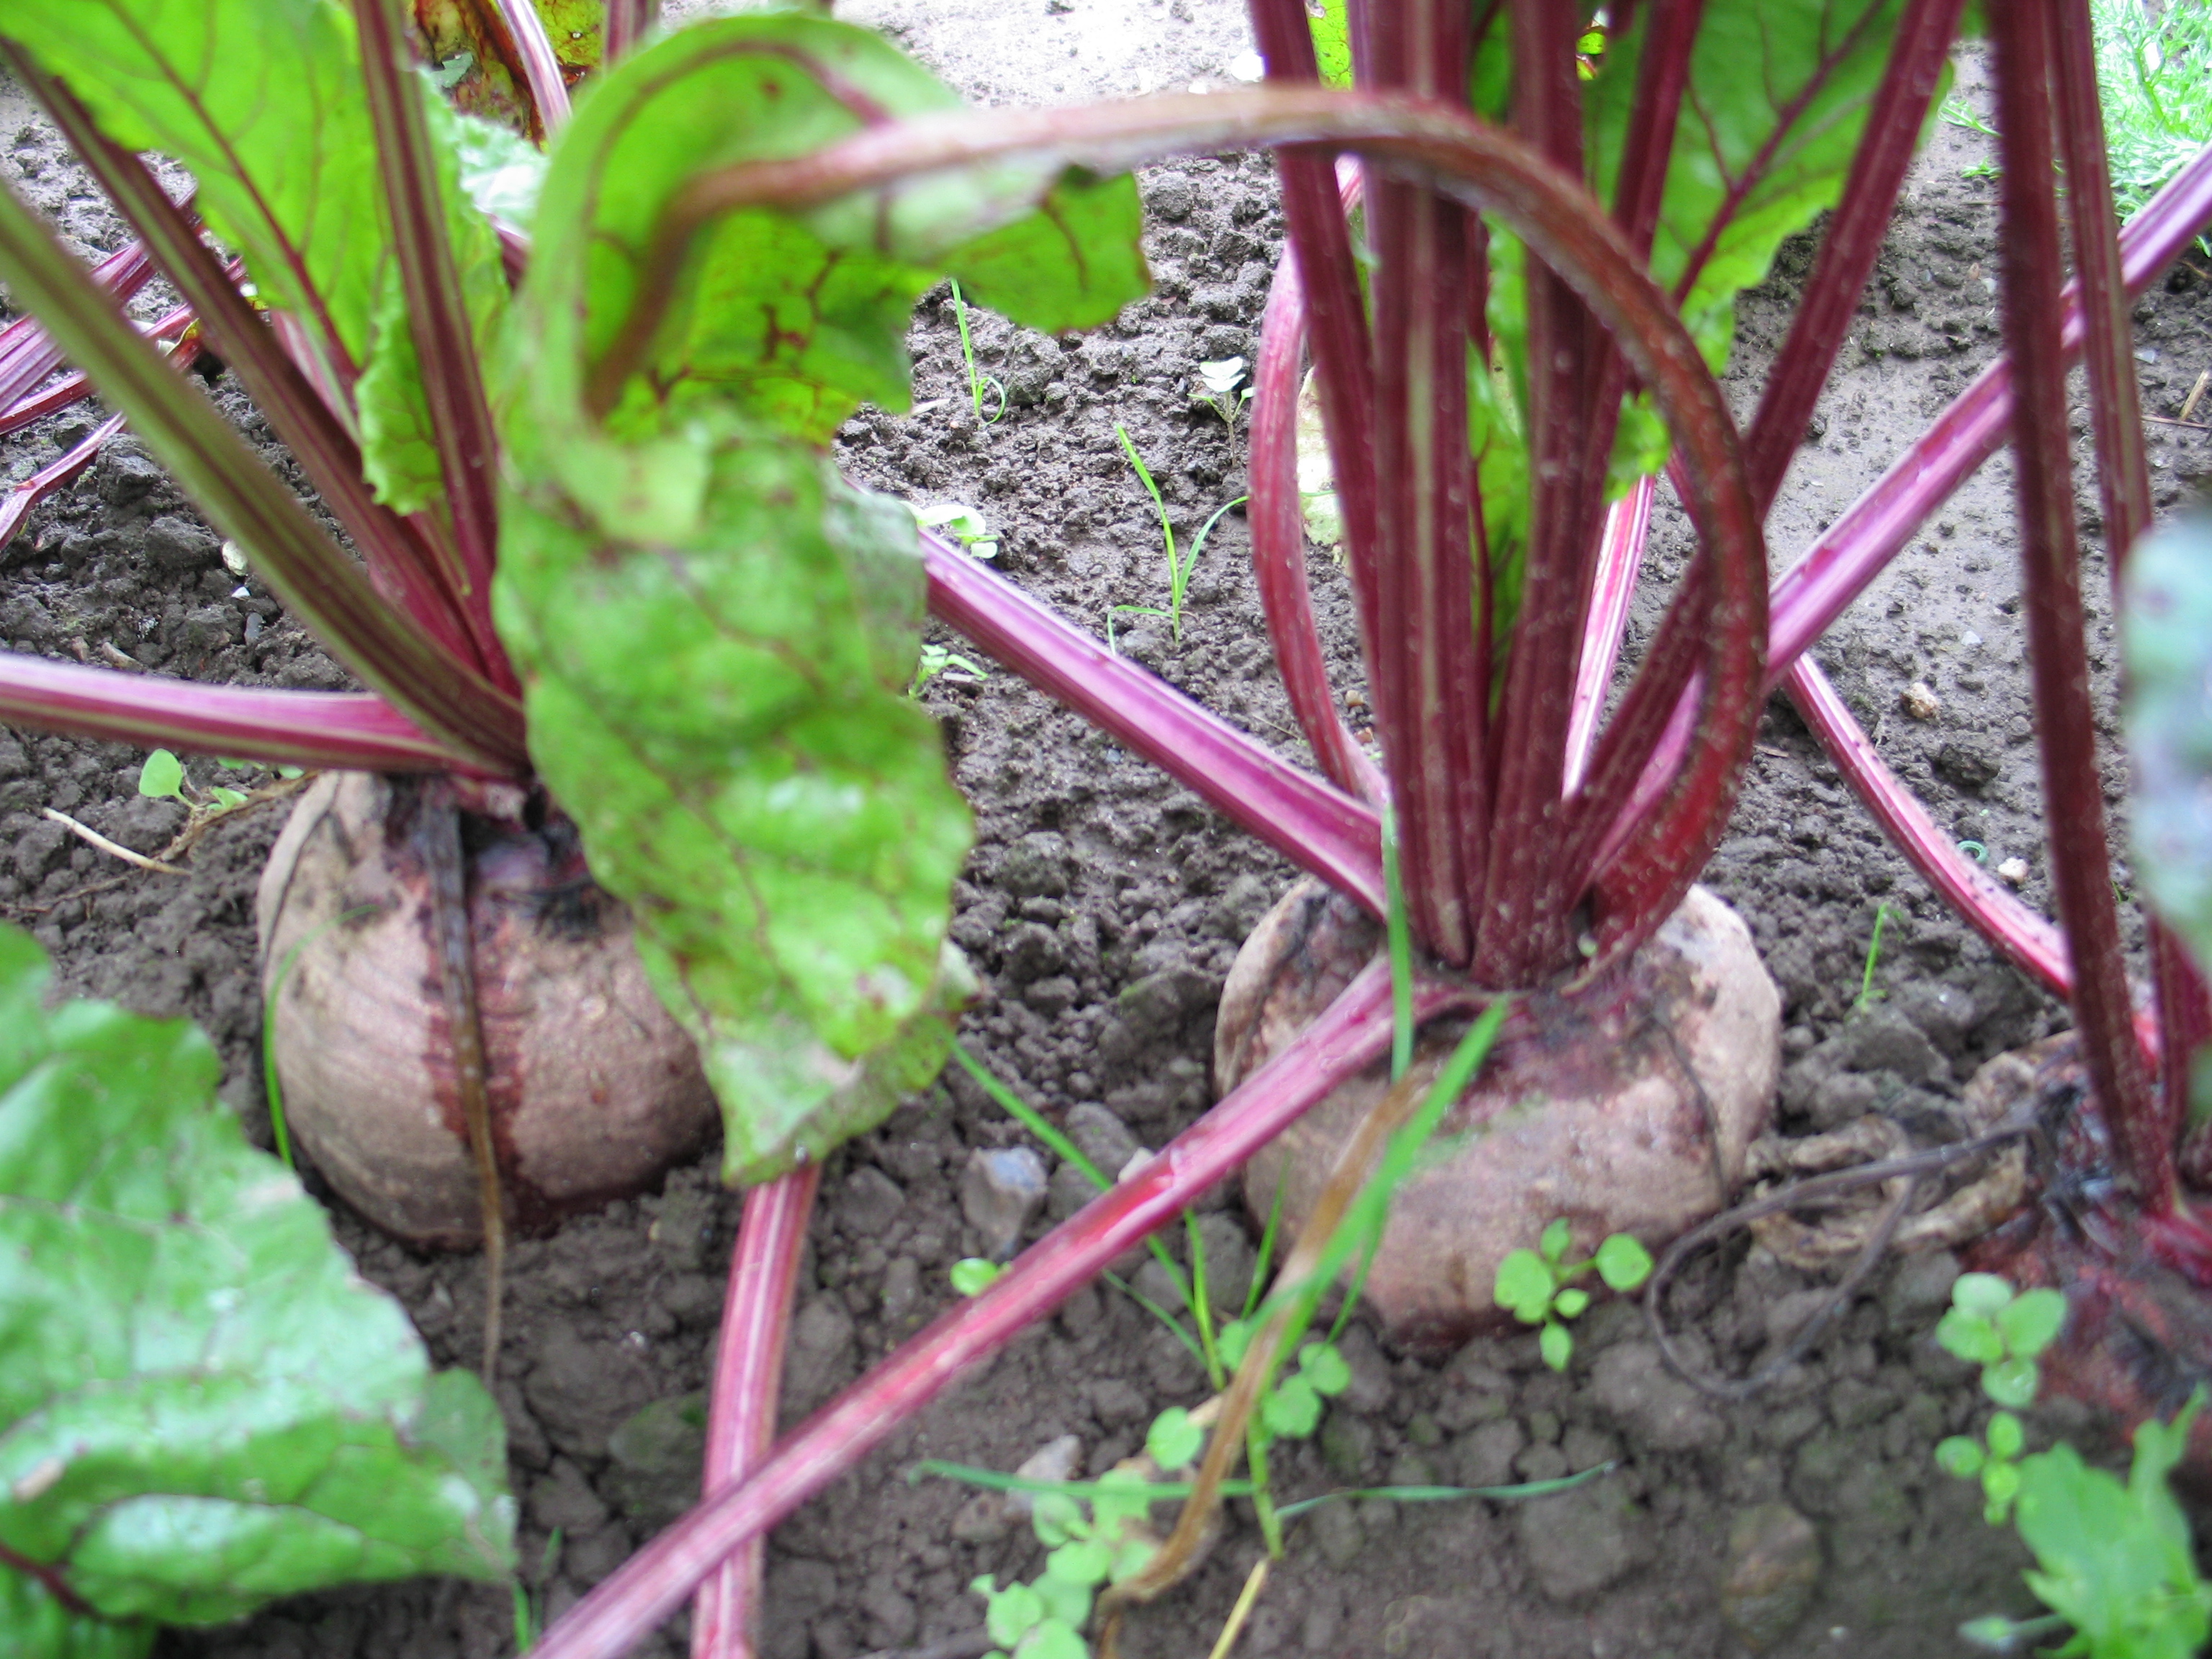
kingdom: Plantae
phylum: Tracheophyta
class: Magnoliopsida
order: Caryophyllales
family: Amaranthaceae
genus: Beta
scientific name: Beta vulgaris
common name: Beet
